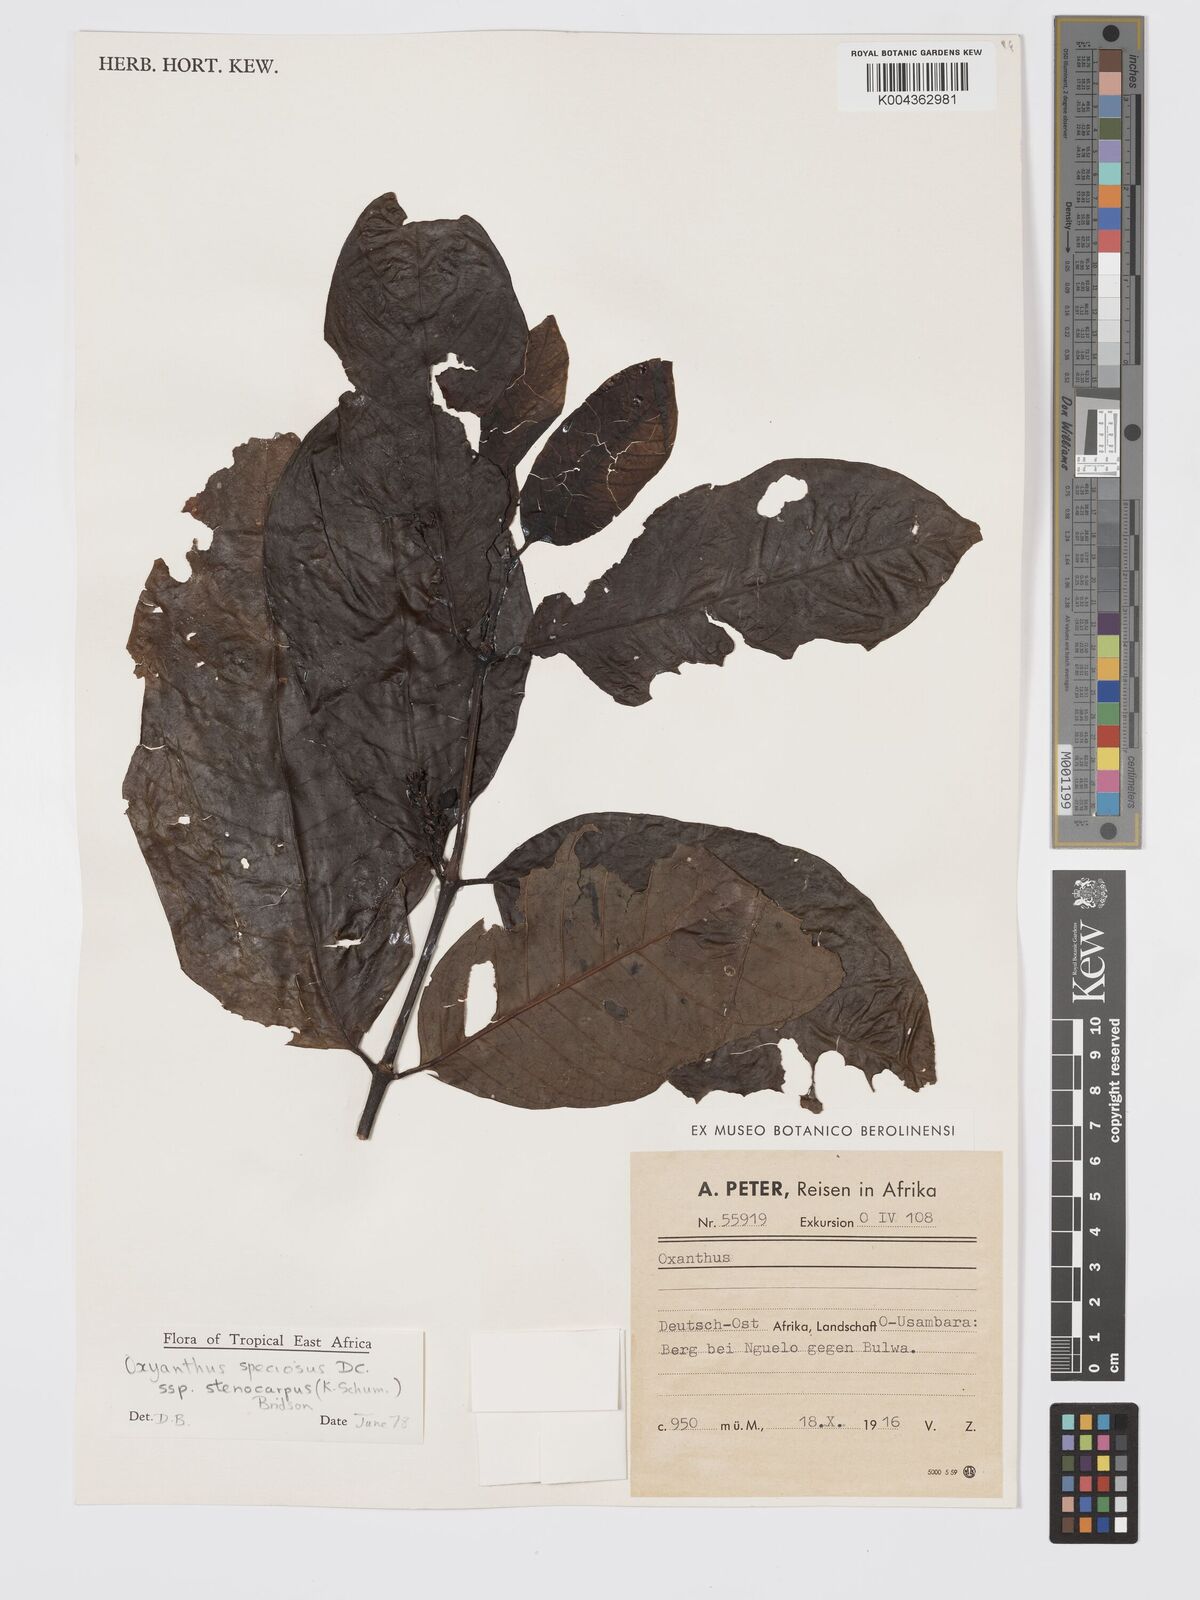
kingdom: Plantae
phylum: Tracheophyta
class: Magnoliopsida
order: Gentianales
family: Rubiaceae
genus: Oxyanthus
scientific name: Oxyanthus speciosus
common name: Whipstick loquat
